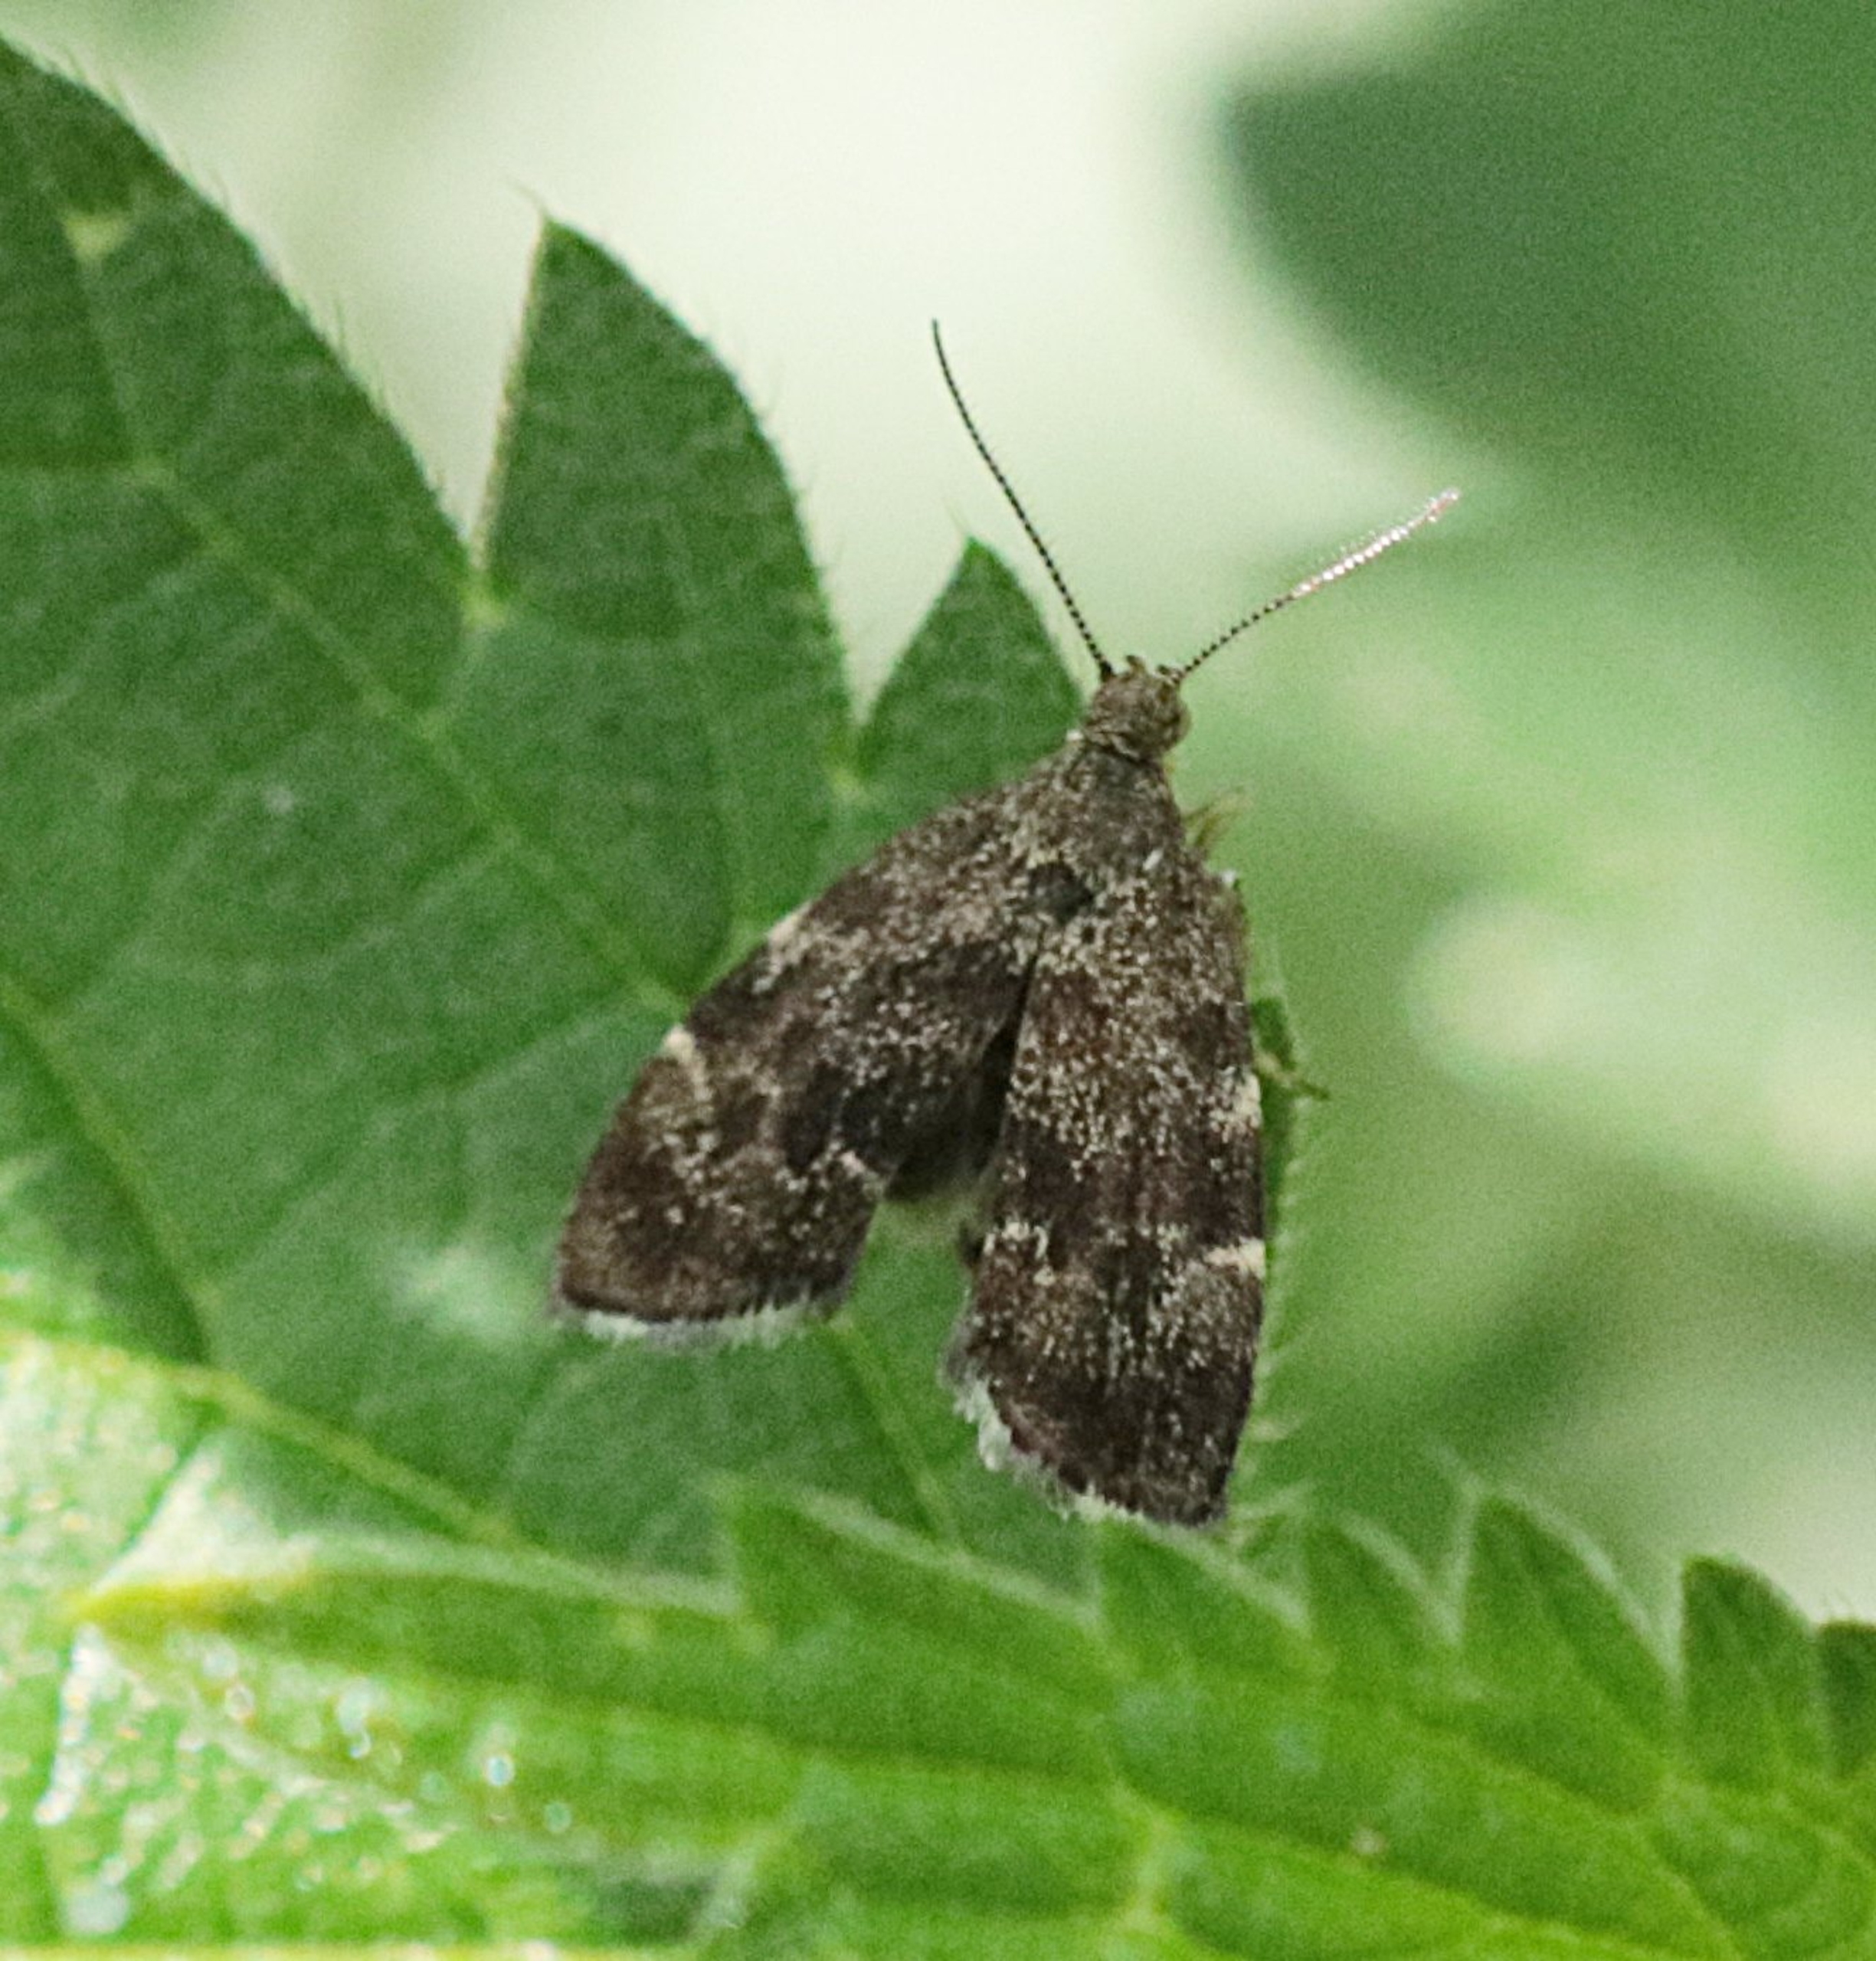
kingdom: Animalia
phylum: Arthropoda
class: Insecta
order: Lepidoptera
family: Choreutidae
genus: Anthophila
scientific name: Anthophila fabriciana
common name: Bredvinget nældevikler
